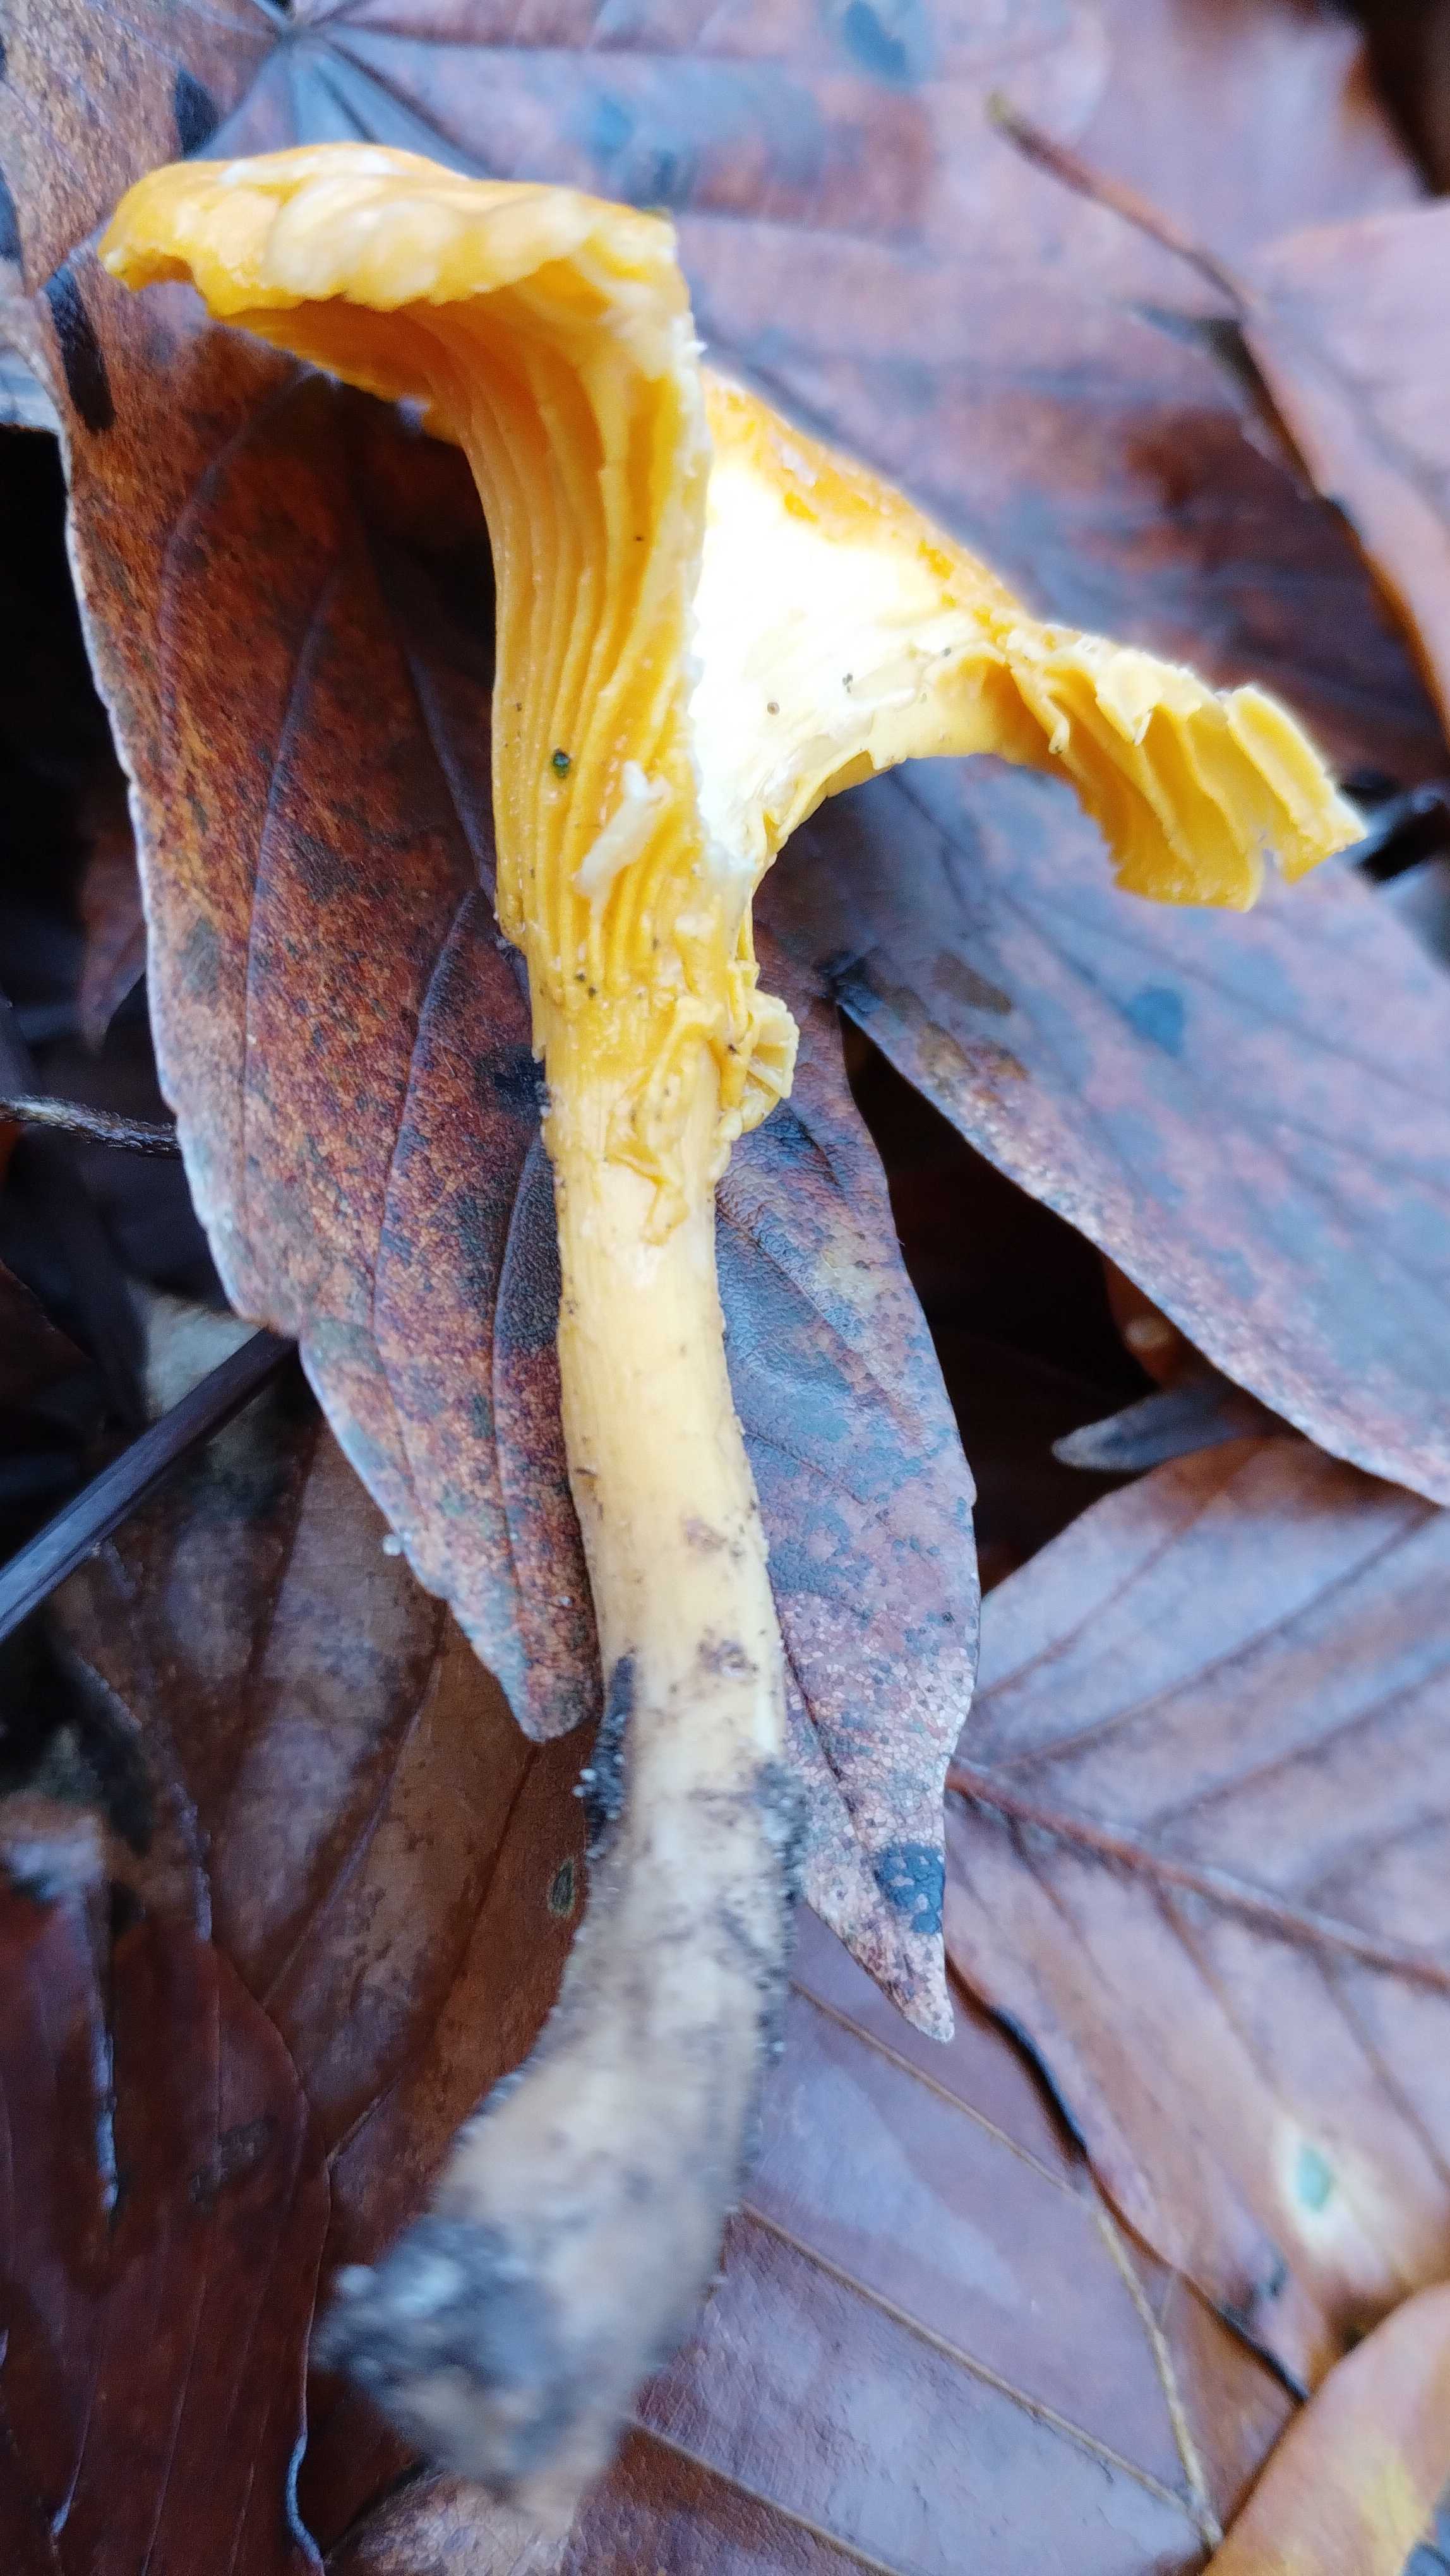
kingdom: Fungi
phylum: Basidiomycota
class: Agaricomycetes
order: Cantharellales
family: Hydnaceae
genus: Cantharellus
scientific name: Cantharellus cibarius
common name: almindelig kantarel
